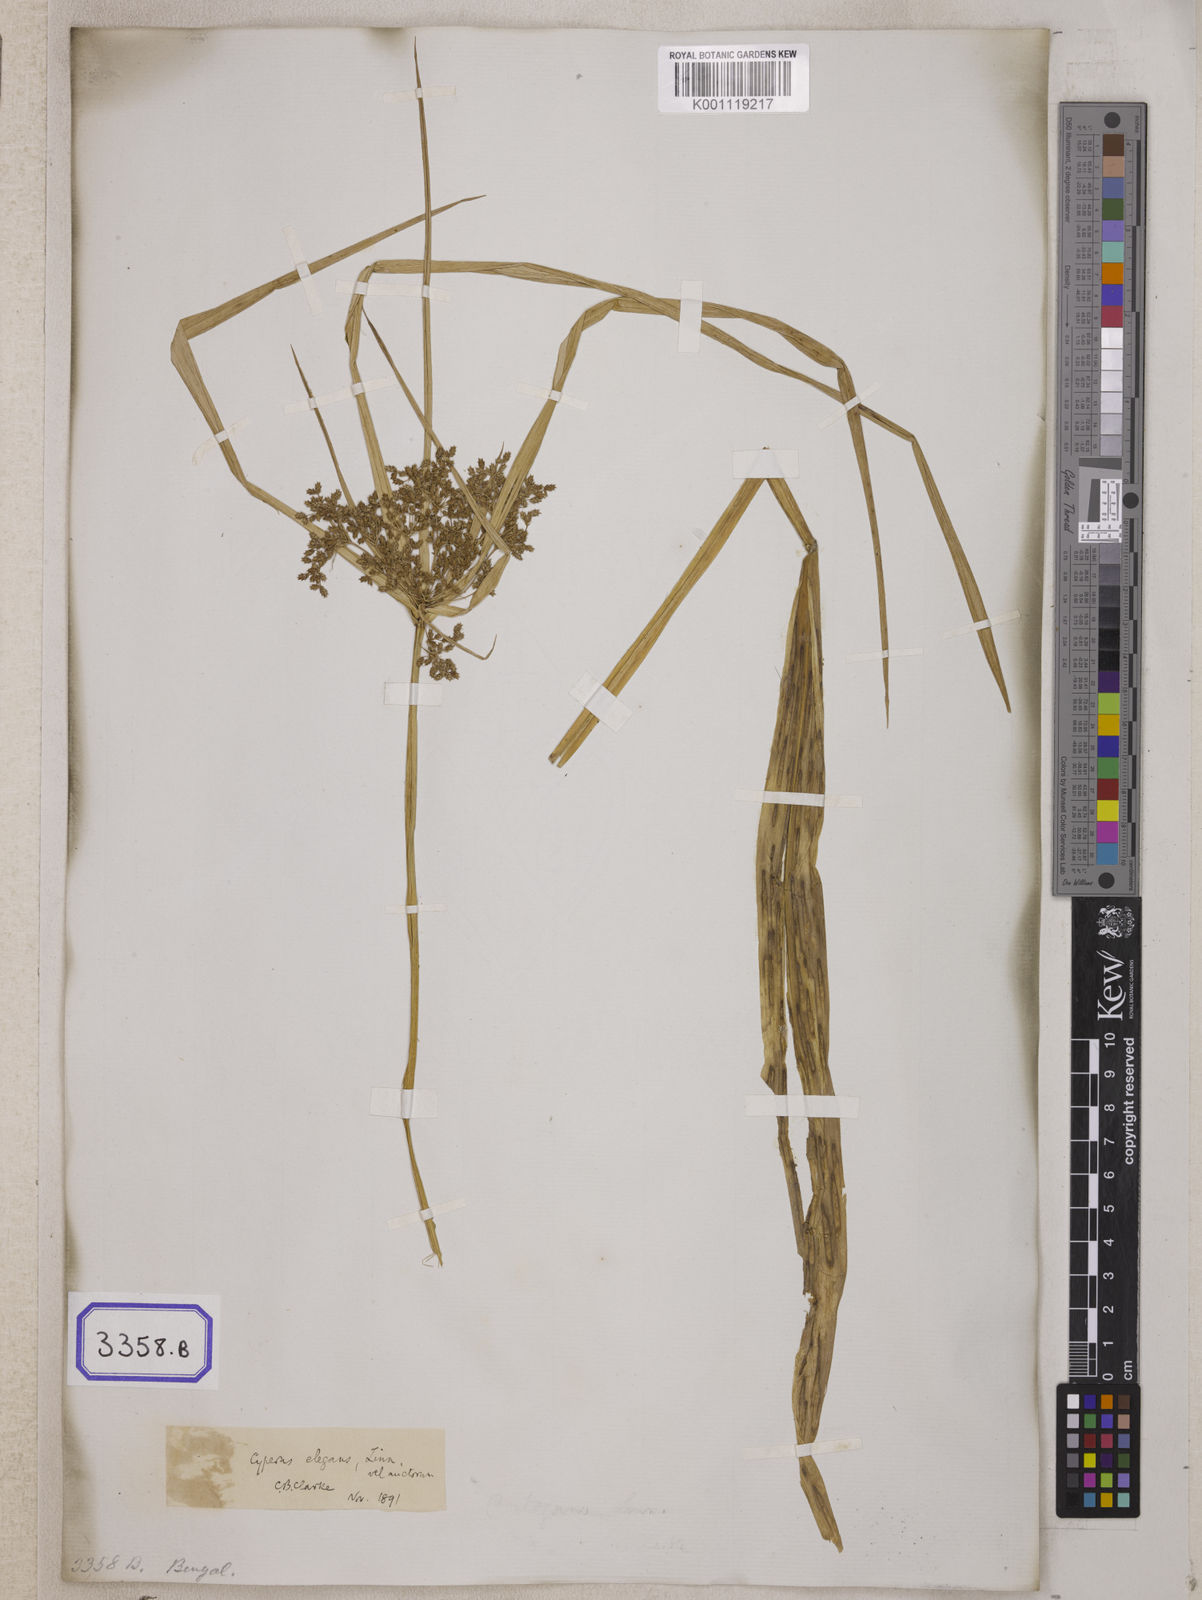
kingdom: Plantae
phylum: Tracheophyta
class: Liliopsida
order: Poales
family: Cyperaceae
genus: Cyperus
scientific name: Cyperus
